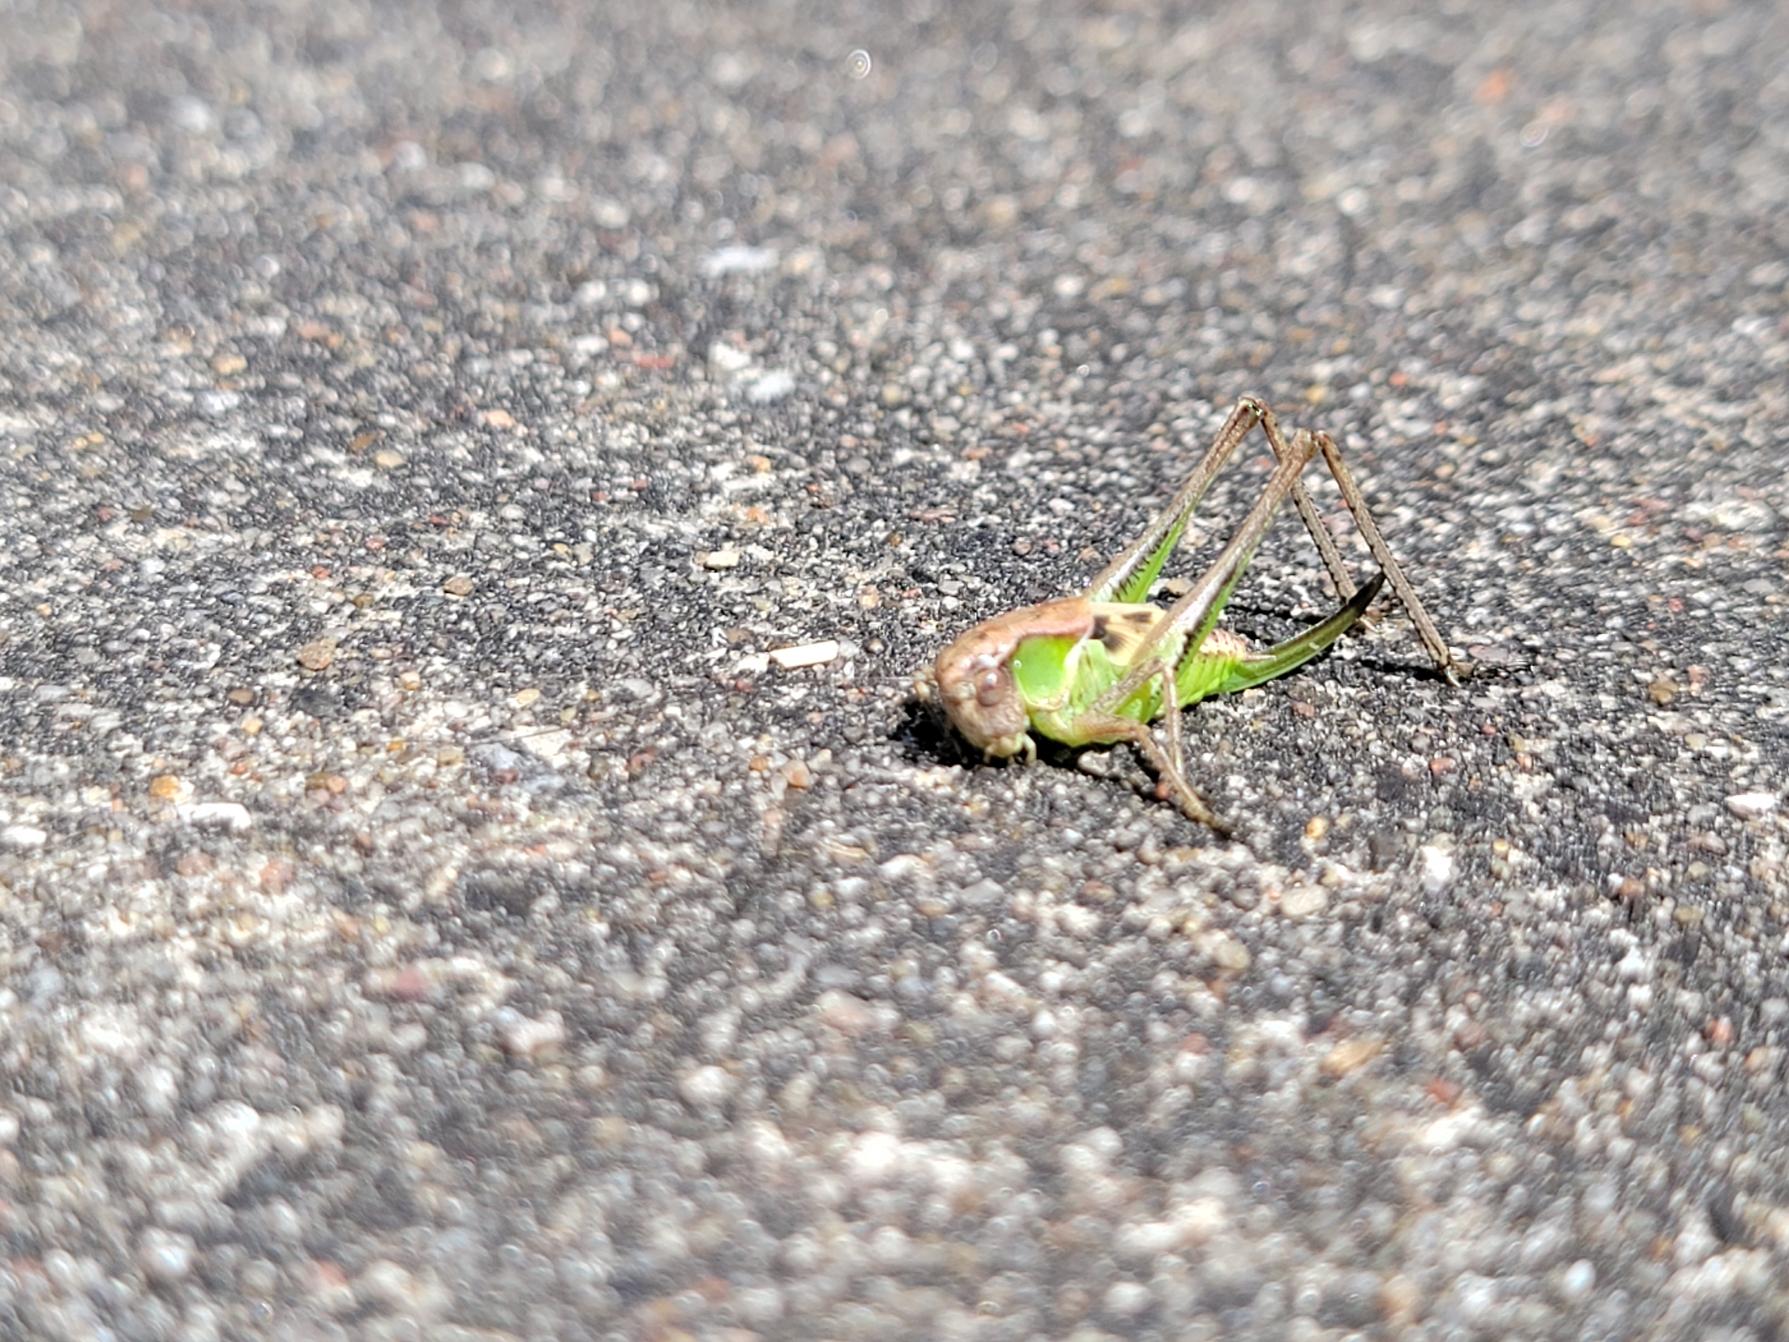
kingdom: Animalia
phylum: Arthropoda
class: Insecta
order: Orthoptera
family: Tettigoniidae
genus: Platycleis
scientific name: Platycleis albopunctata
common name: Sandgræshoppe
